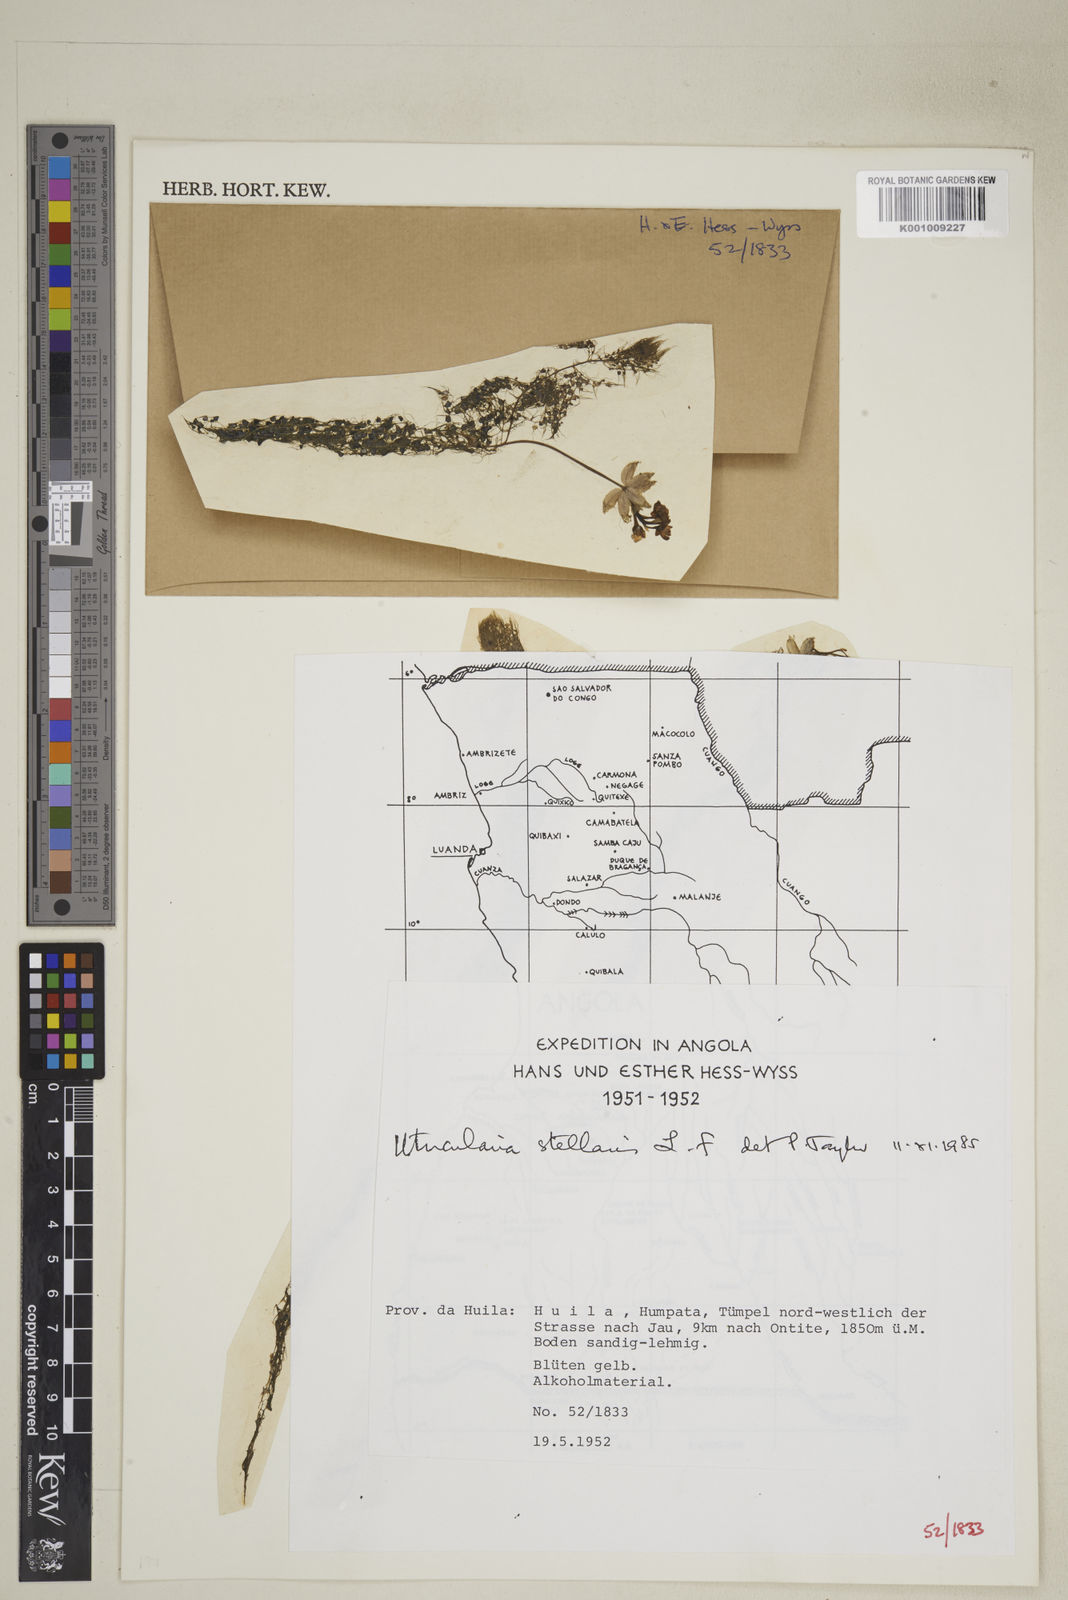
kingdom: Plantae
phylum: Tracheophyta
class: Magnoliopsida
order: Lamiales
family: Lentibulariaceae
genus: Utricularia
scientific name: Utricularia stellaris
